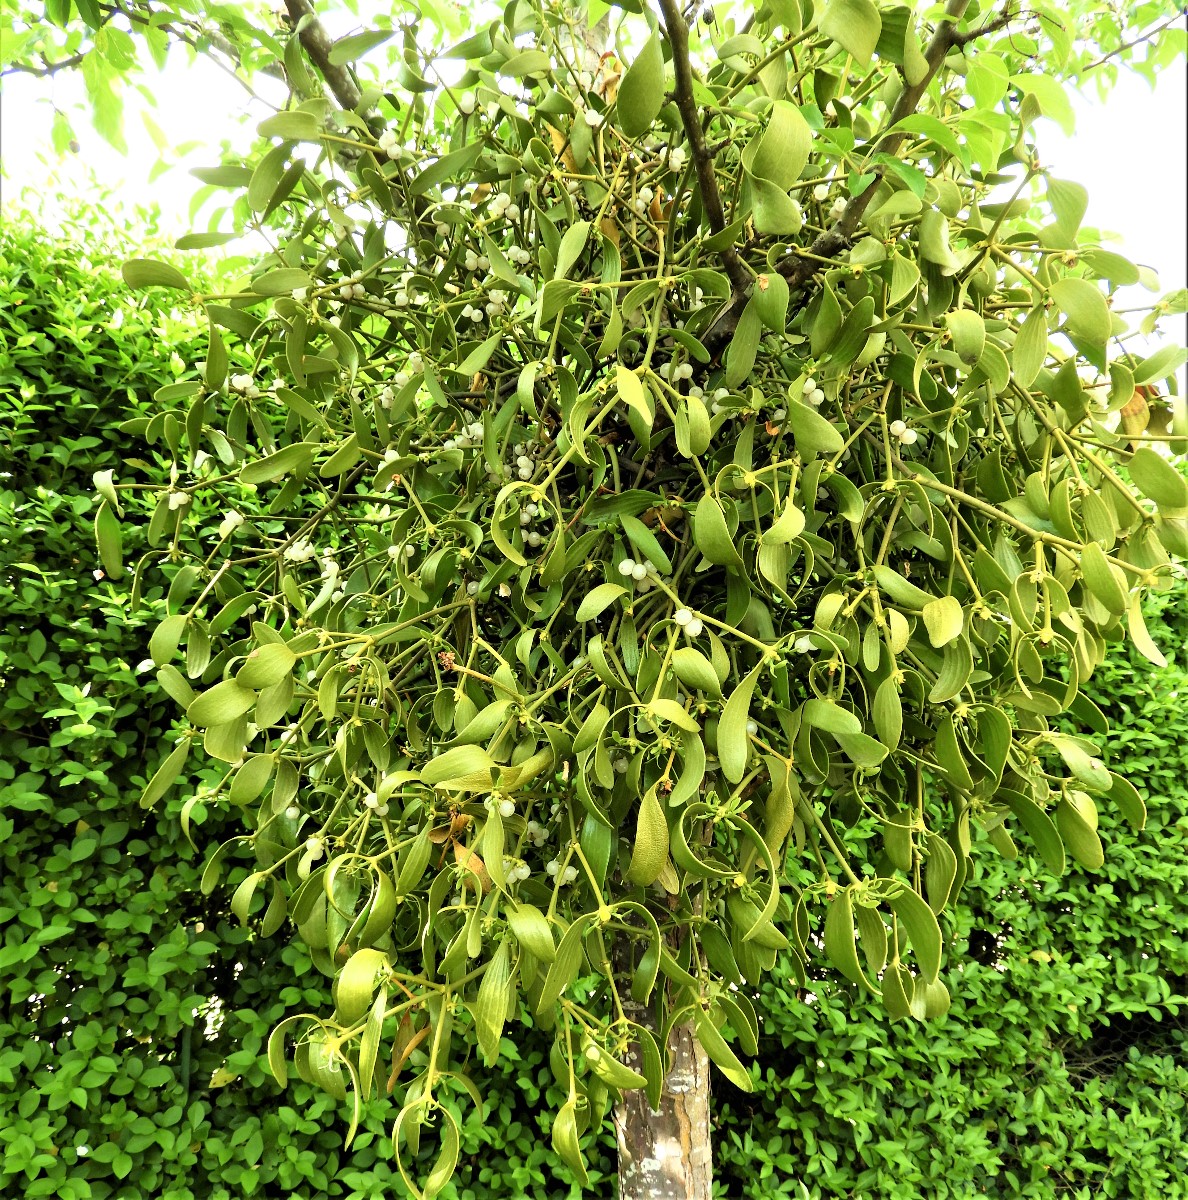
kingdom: Fungi
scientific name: Fungi
